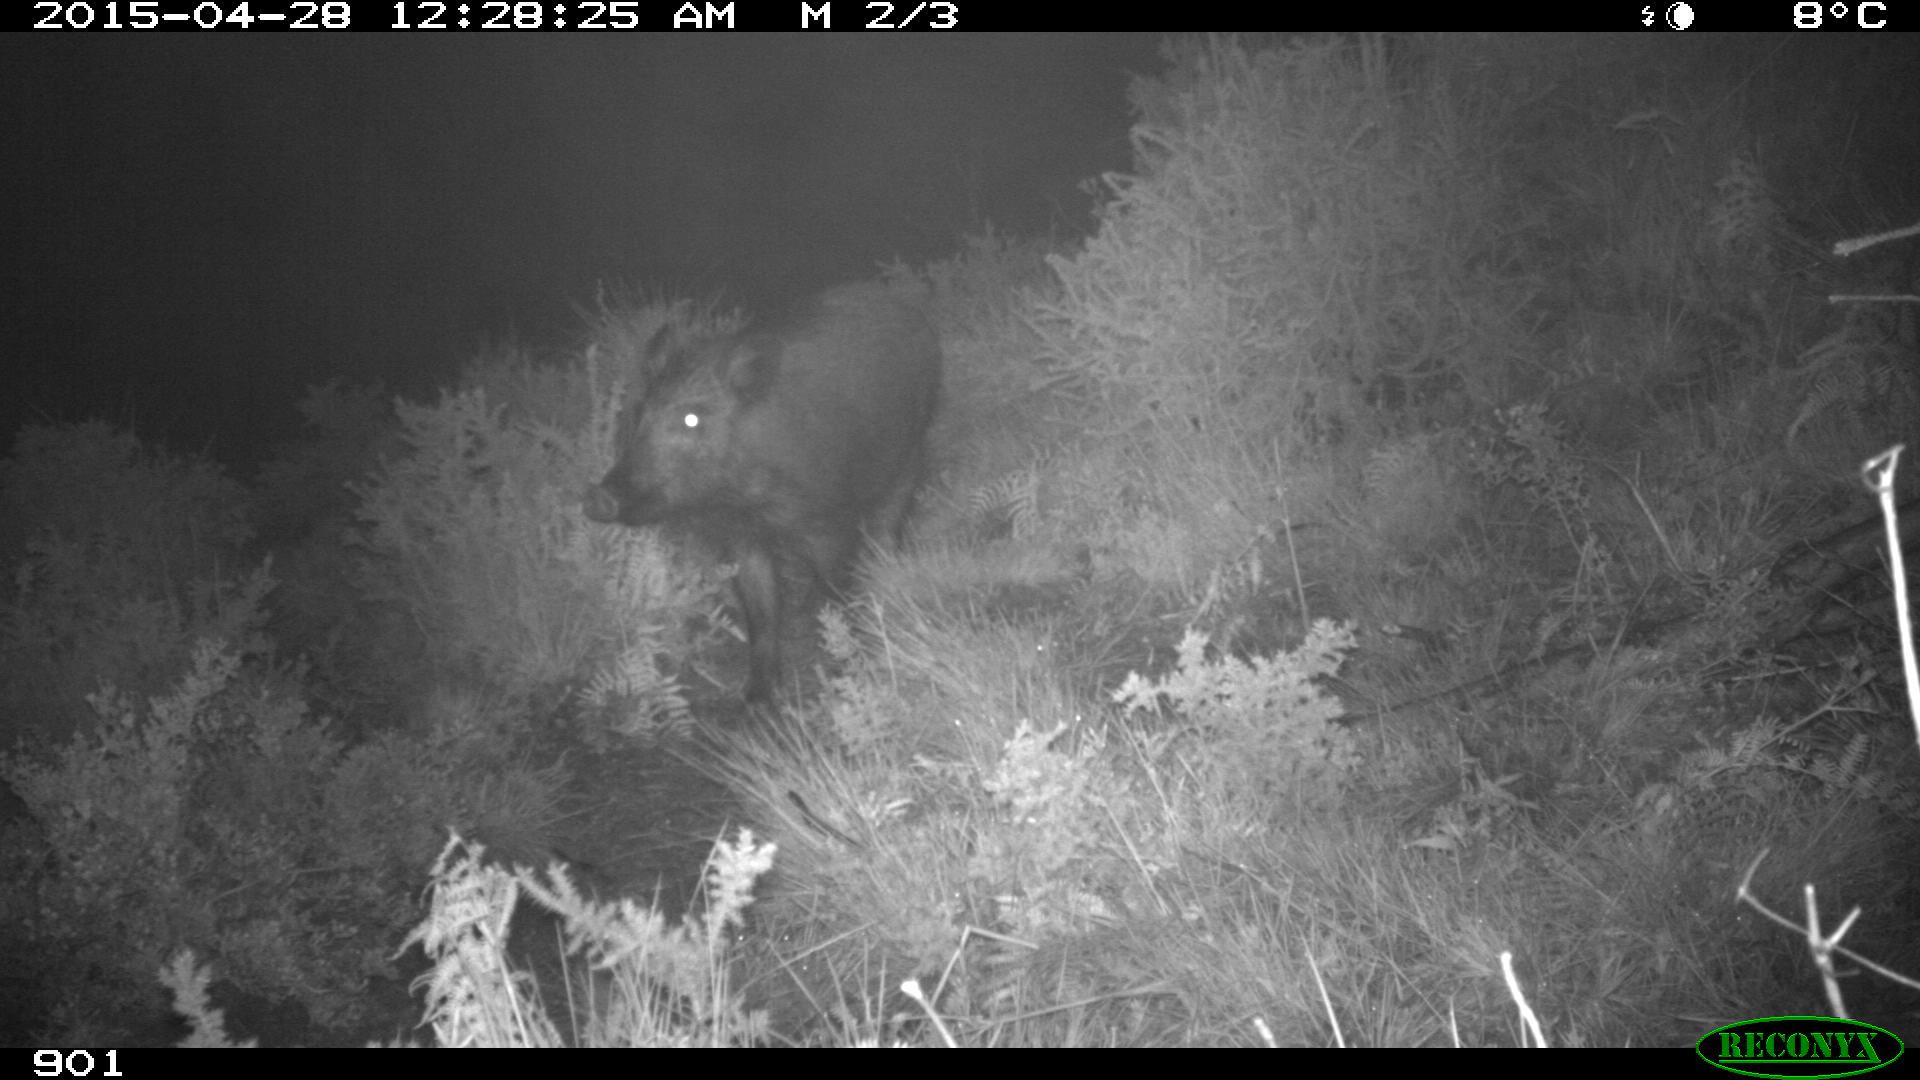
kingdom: Animalia
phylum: Chordata
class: Mammalia
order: Artiodactyla
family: Suidae
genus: Sus
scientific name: Sus scrofa
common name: Wild boar
